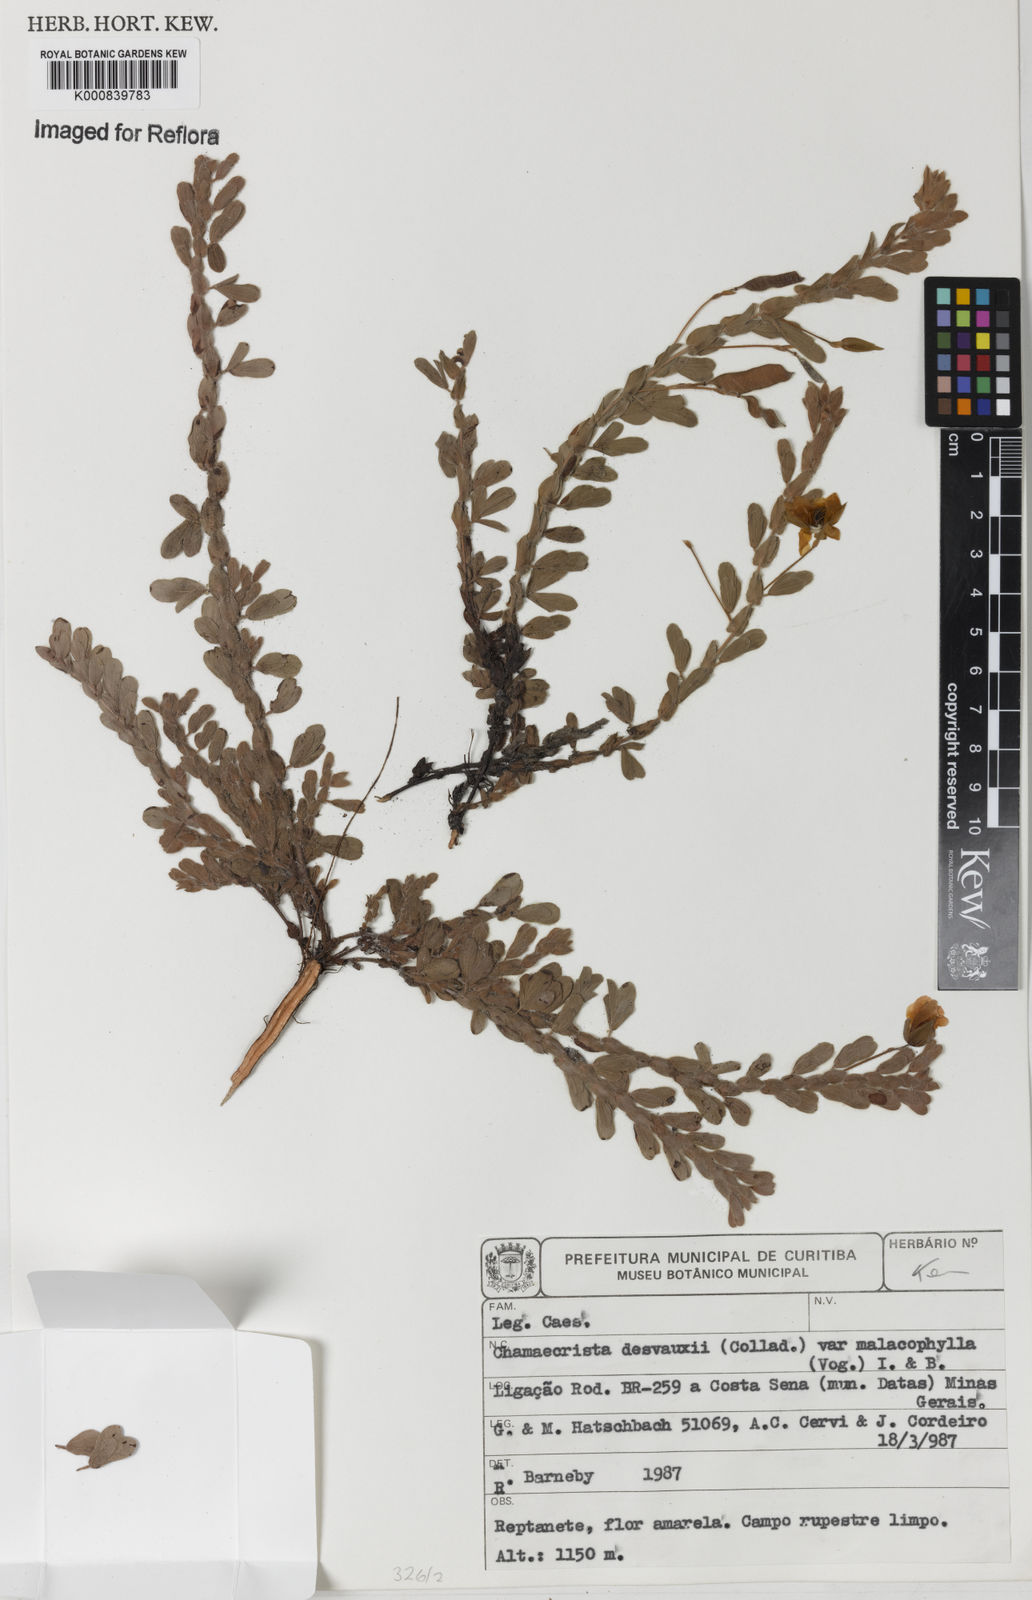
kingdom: Plantae
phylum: Tracheophyta
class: Magnoliopsida
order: Fabales
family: Fabaceae
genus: Chamaecrista
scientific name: Chamaecrista desvauxii
